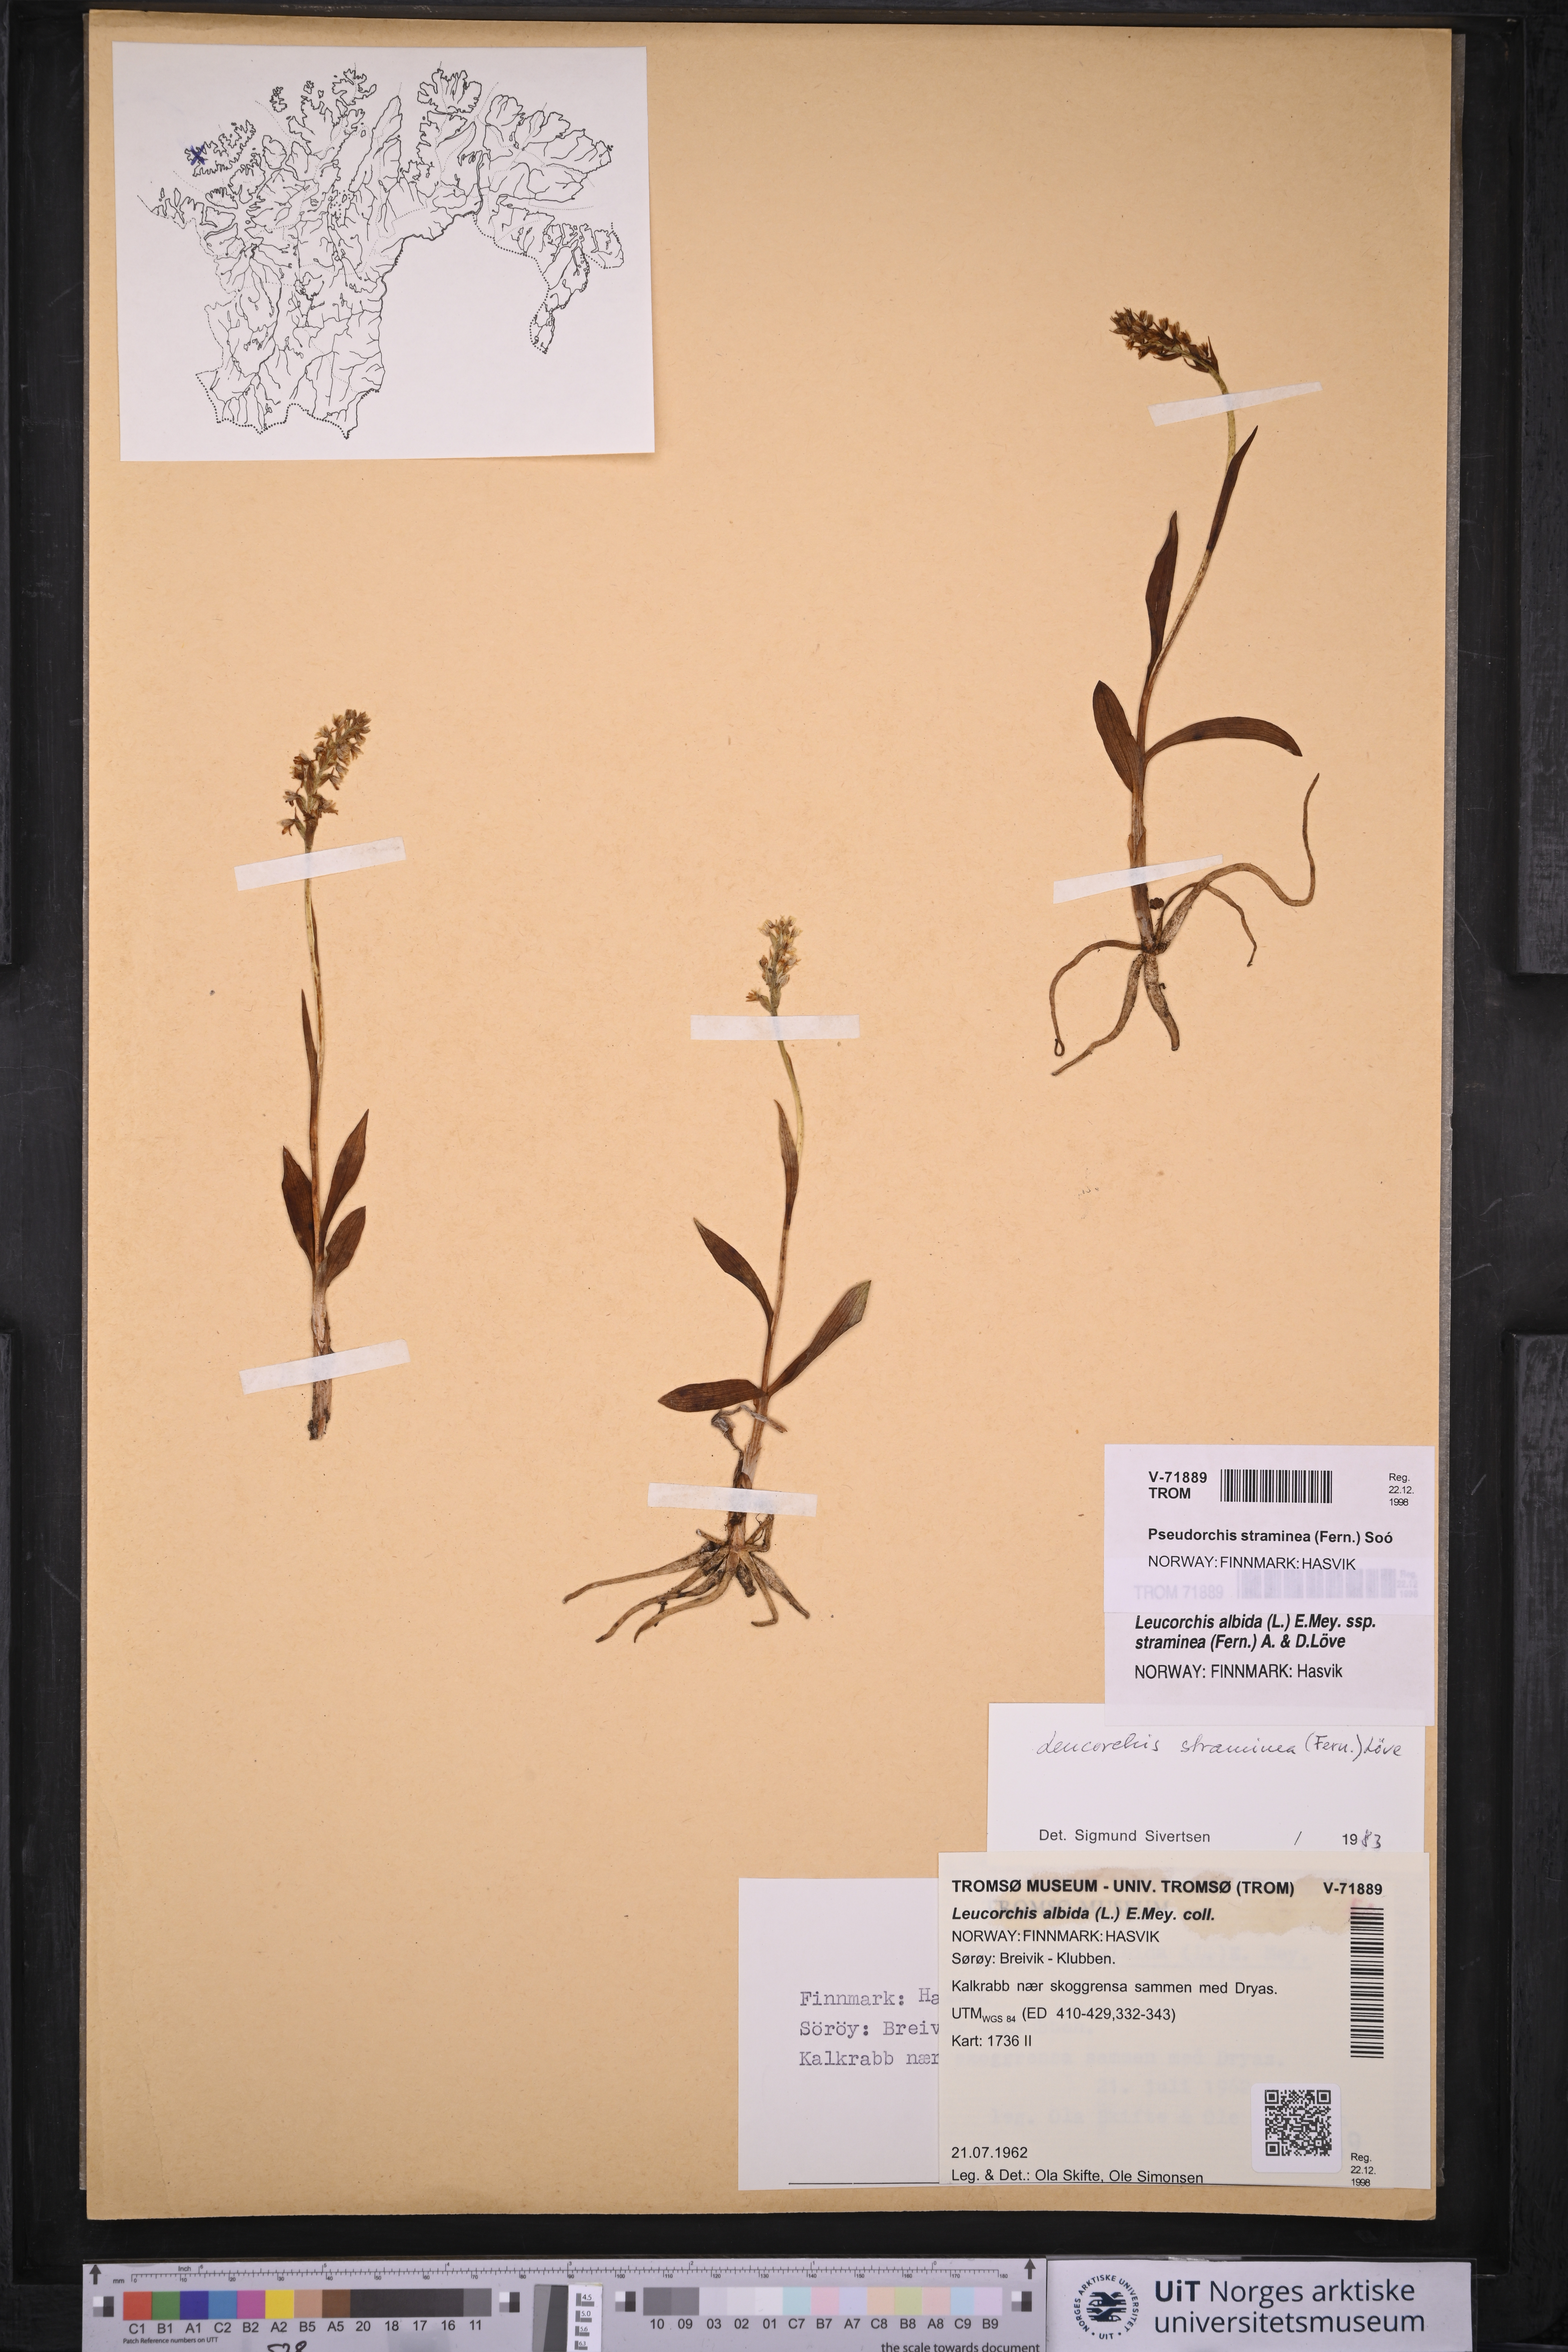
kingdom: Plantae
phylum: Tracheophyta
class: Liliopsida
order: Asparagales
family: Orchidaceae
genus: Pseudorchis
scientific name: Pseudorchis straminea
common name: Vanilla-scented bog orchid
